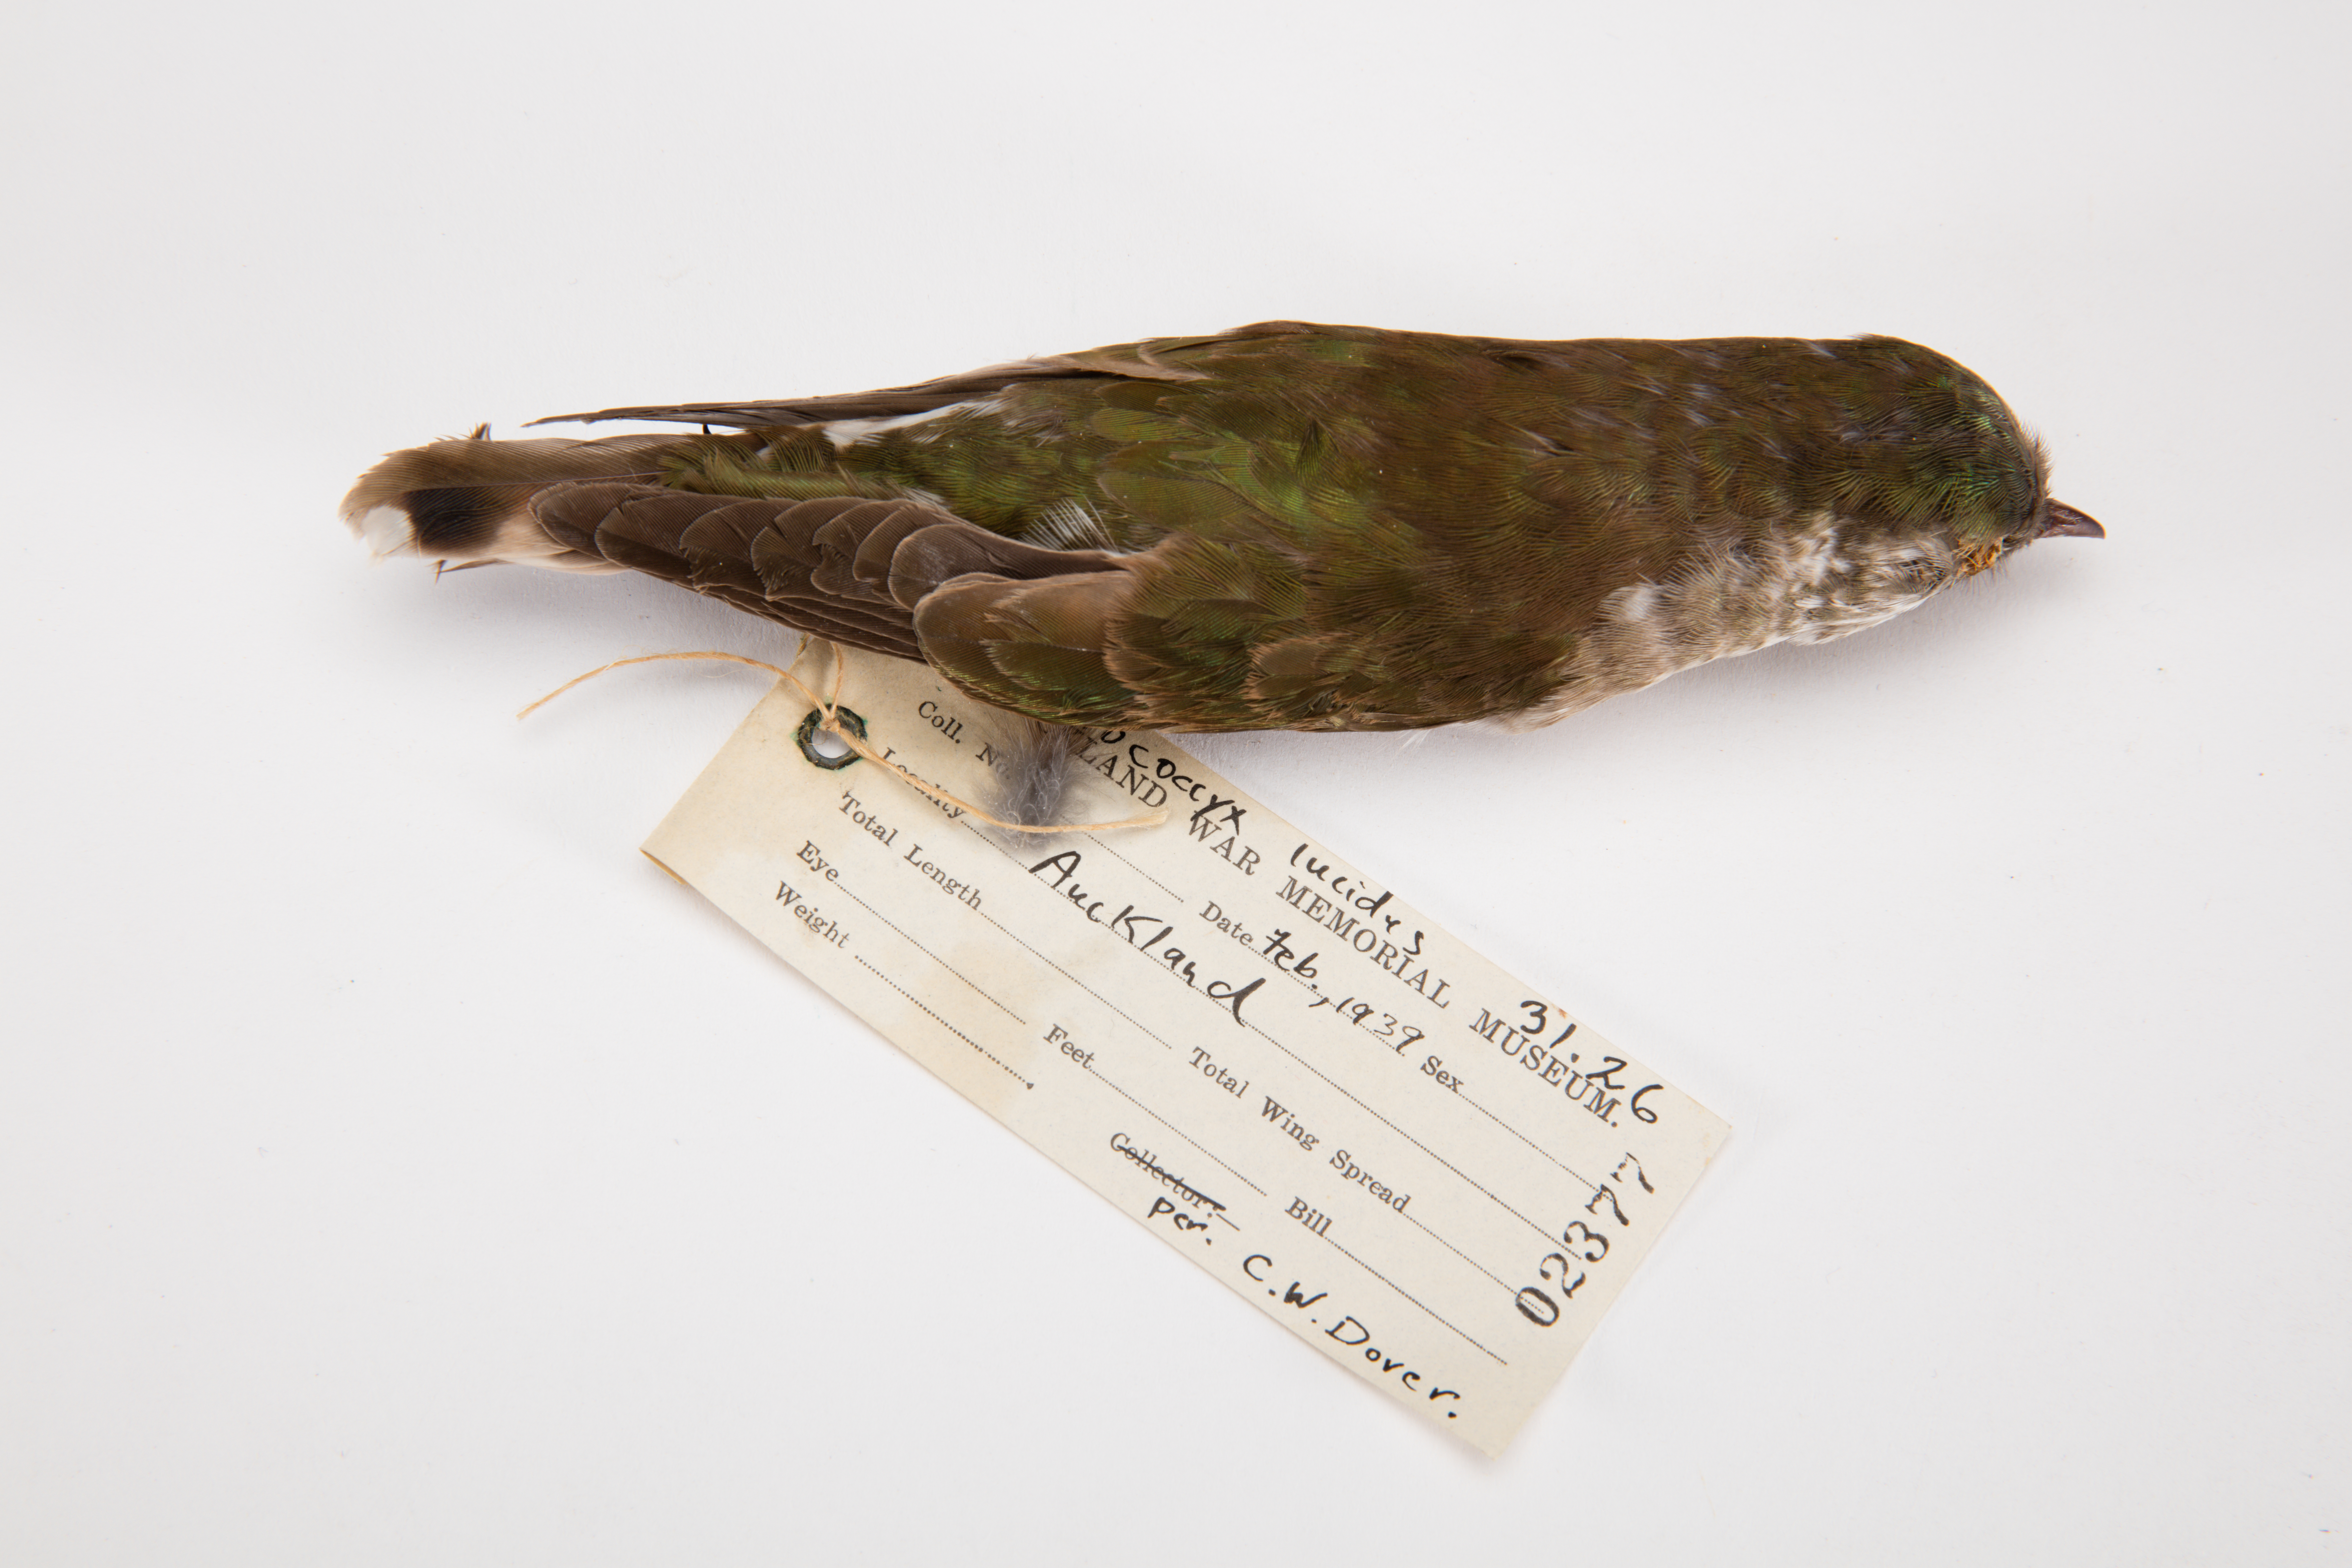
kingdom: Animalia
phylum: Chordata
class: Aves
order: Cuculiformes
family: Cuculidae
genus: Chrysococcyx
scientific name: Chrysococcyx lucidus
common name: Shining bronze cuckoo
